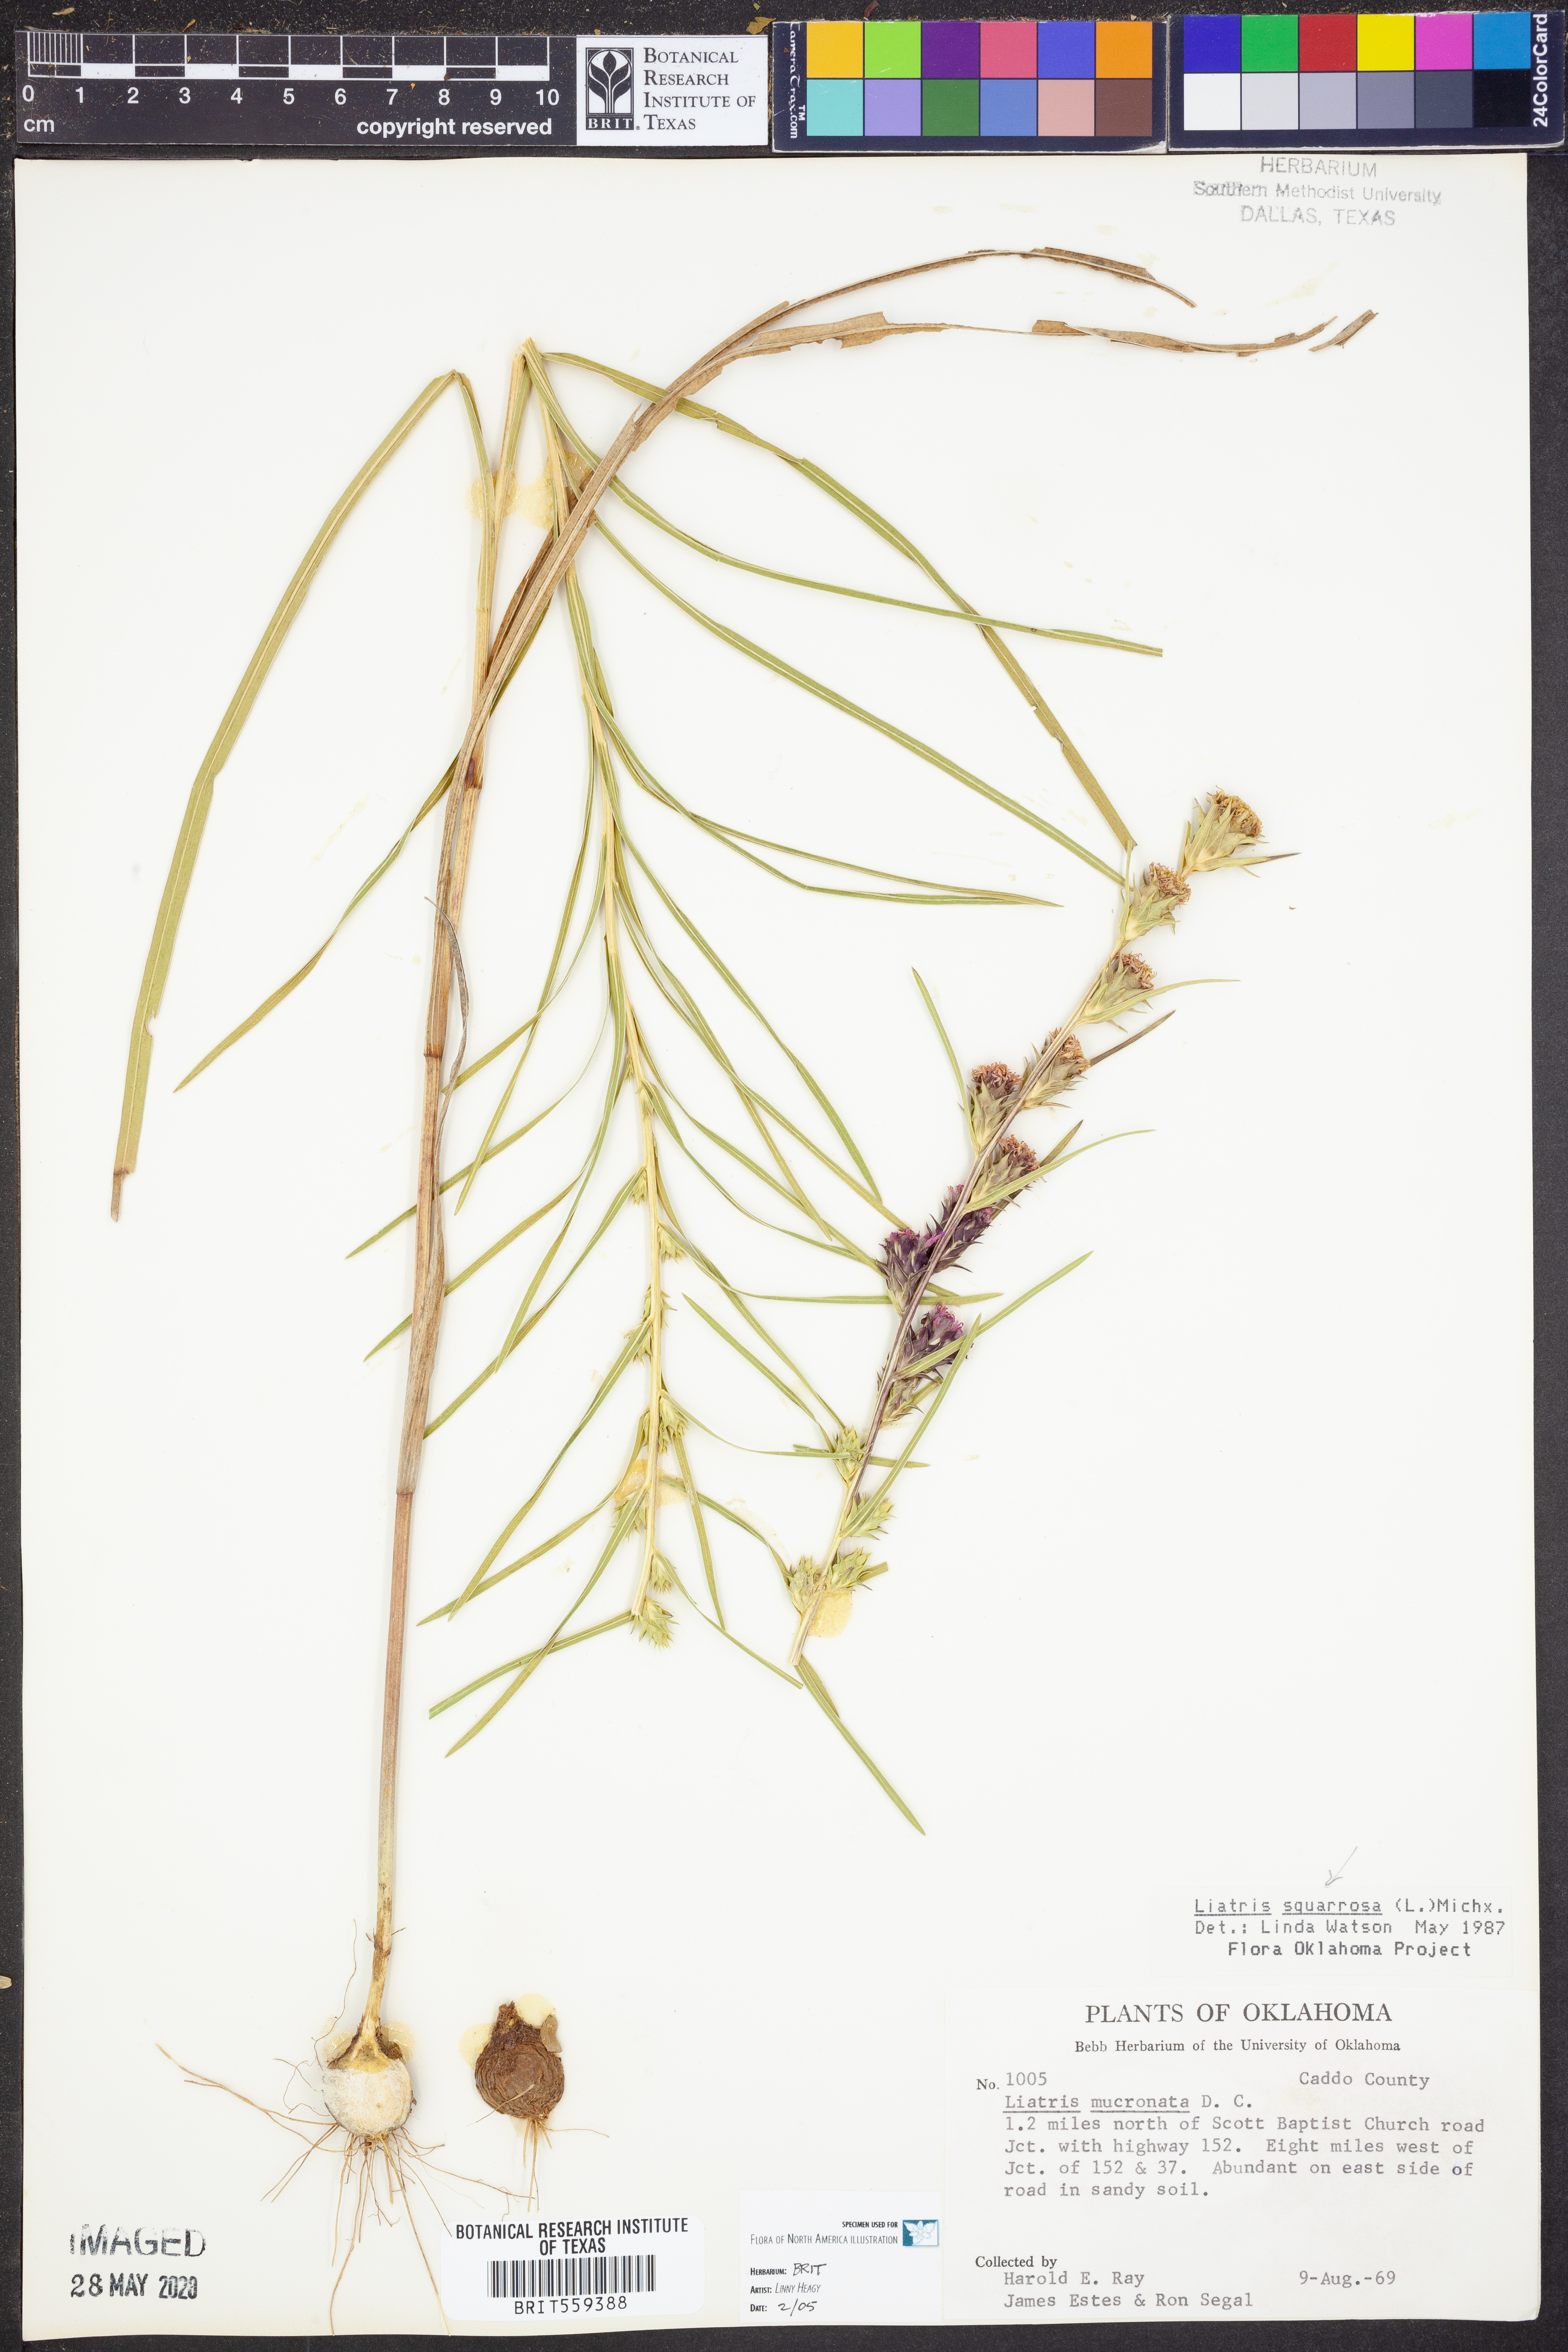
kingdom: Plantae
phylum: Tracheophyta
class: Magnoliopsida
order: Asterales
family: Asteraceae
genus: Liatris
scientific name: Liatris squarrosa
